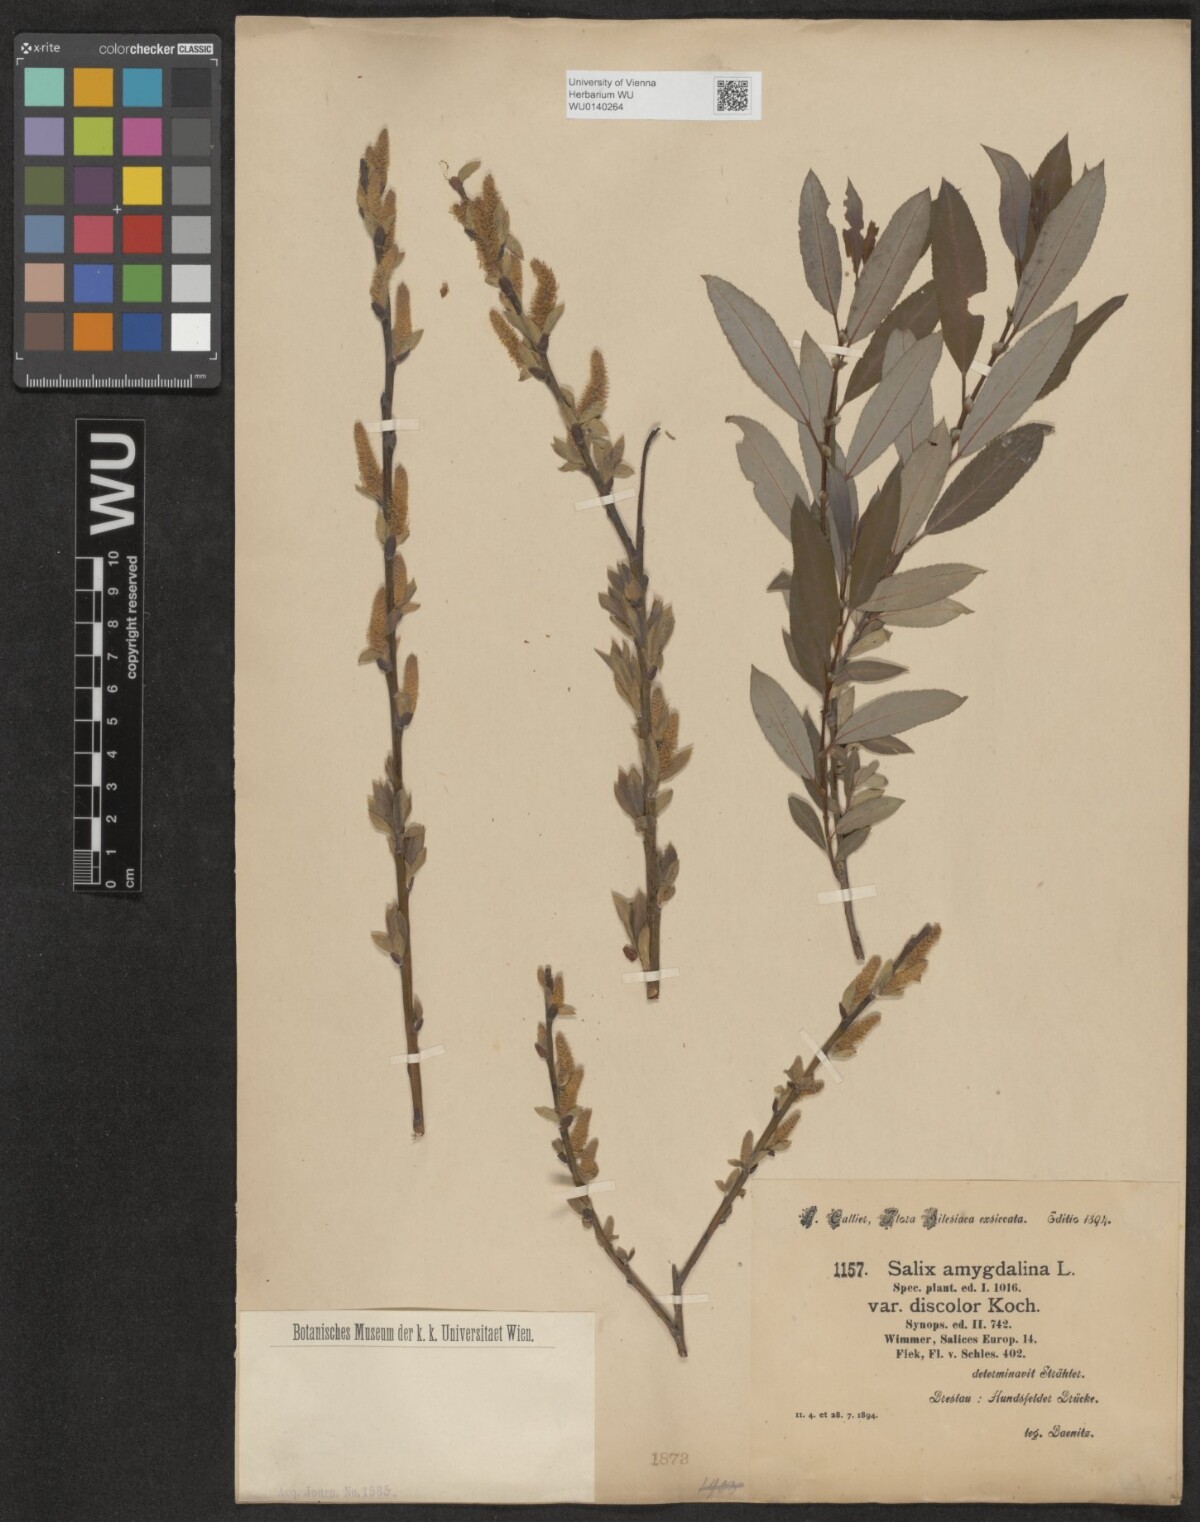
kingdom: Plantae
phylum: Tracheophyta
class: Magnoliopsida
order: Malpighiales
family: Salicaceae
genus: Salix
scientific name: Salix triandra
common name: Almond willow
